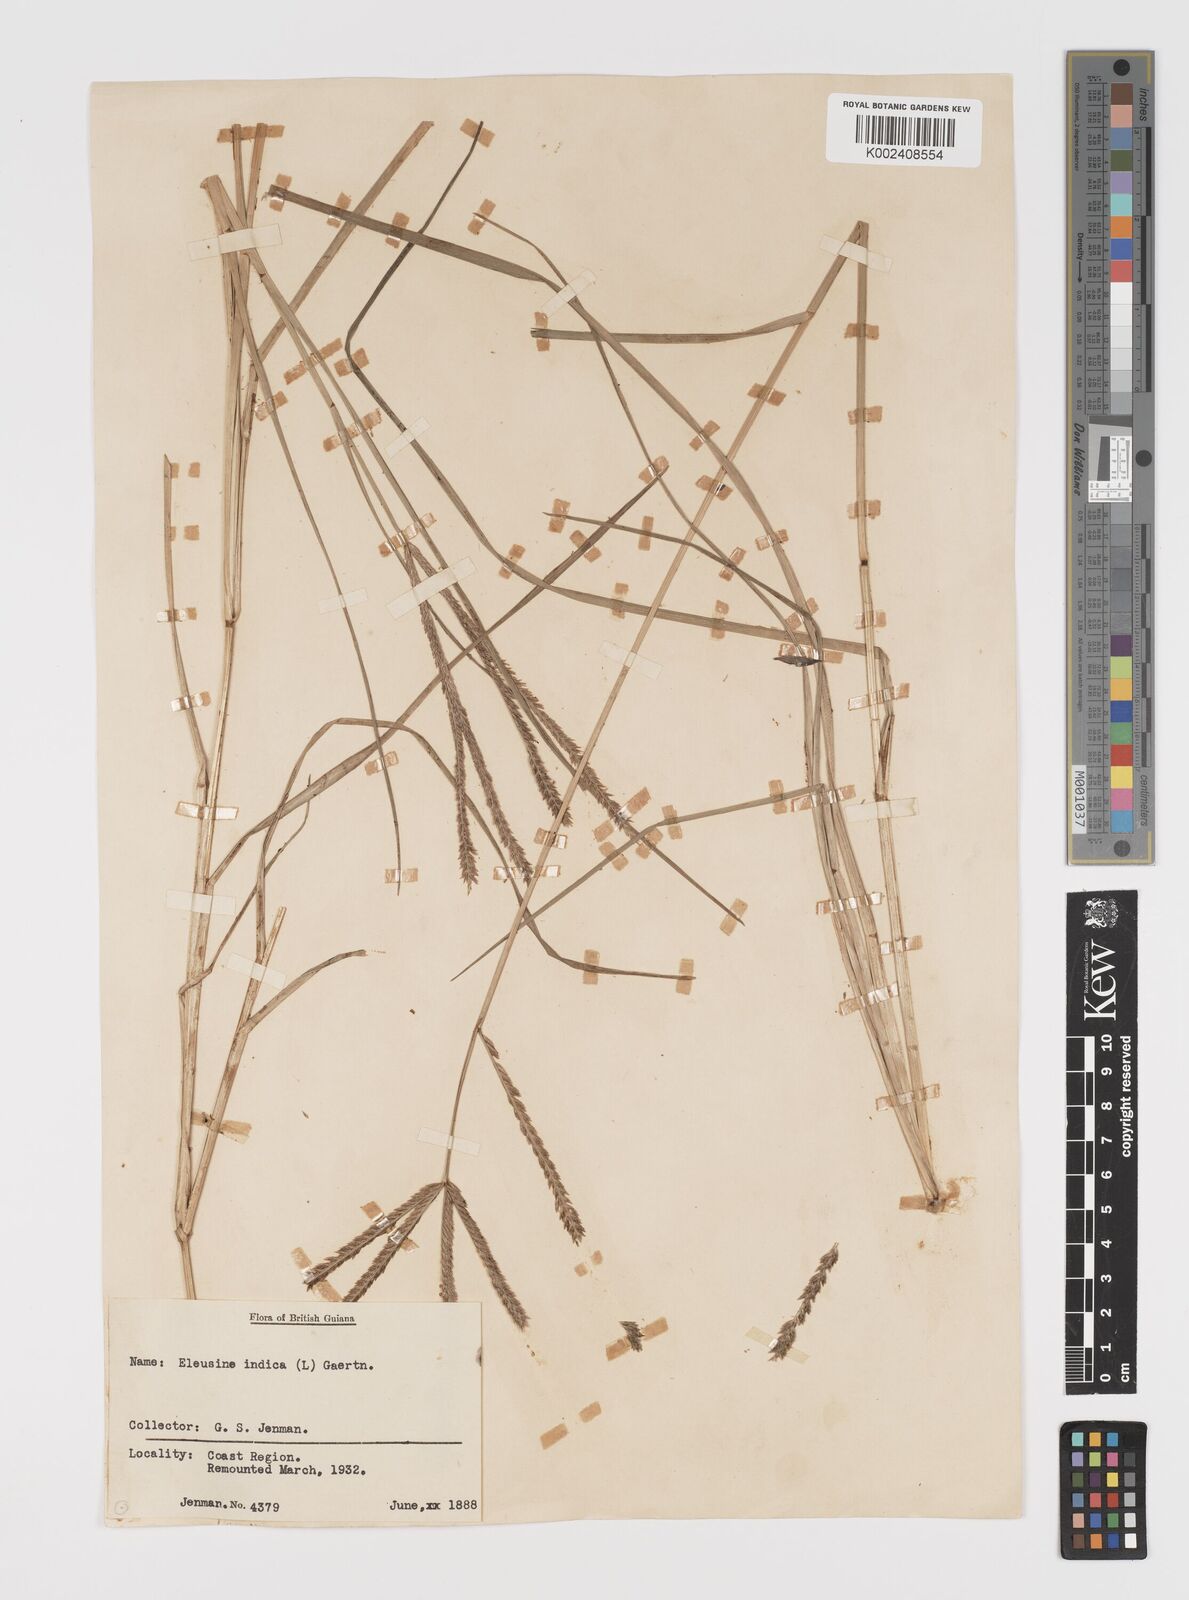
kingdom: Plantae
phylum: Tracheophyta
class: Liliopsida
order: Poales
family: Poaceae
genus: Eleusine
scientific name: Eleusine indica
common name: Yard-grass
